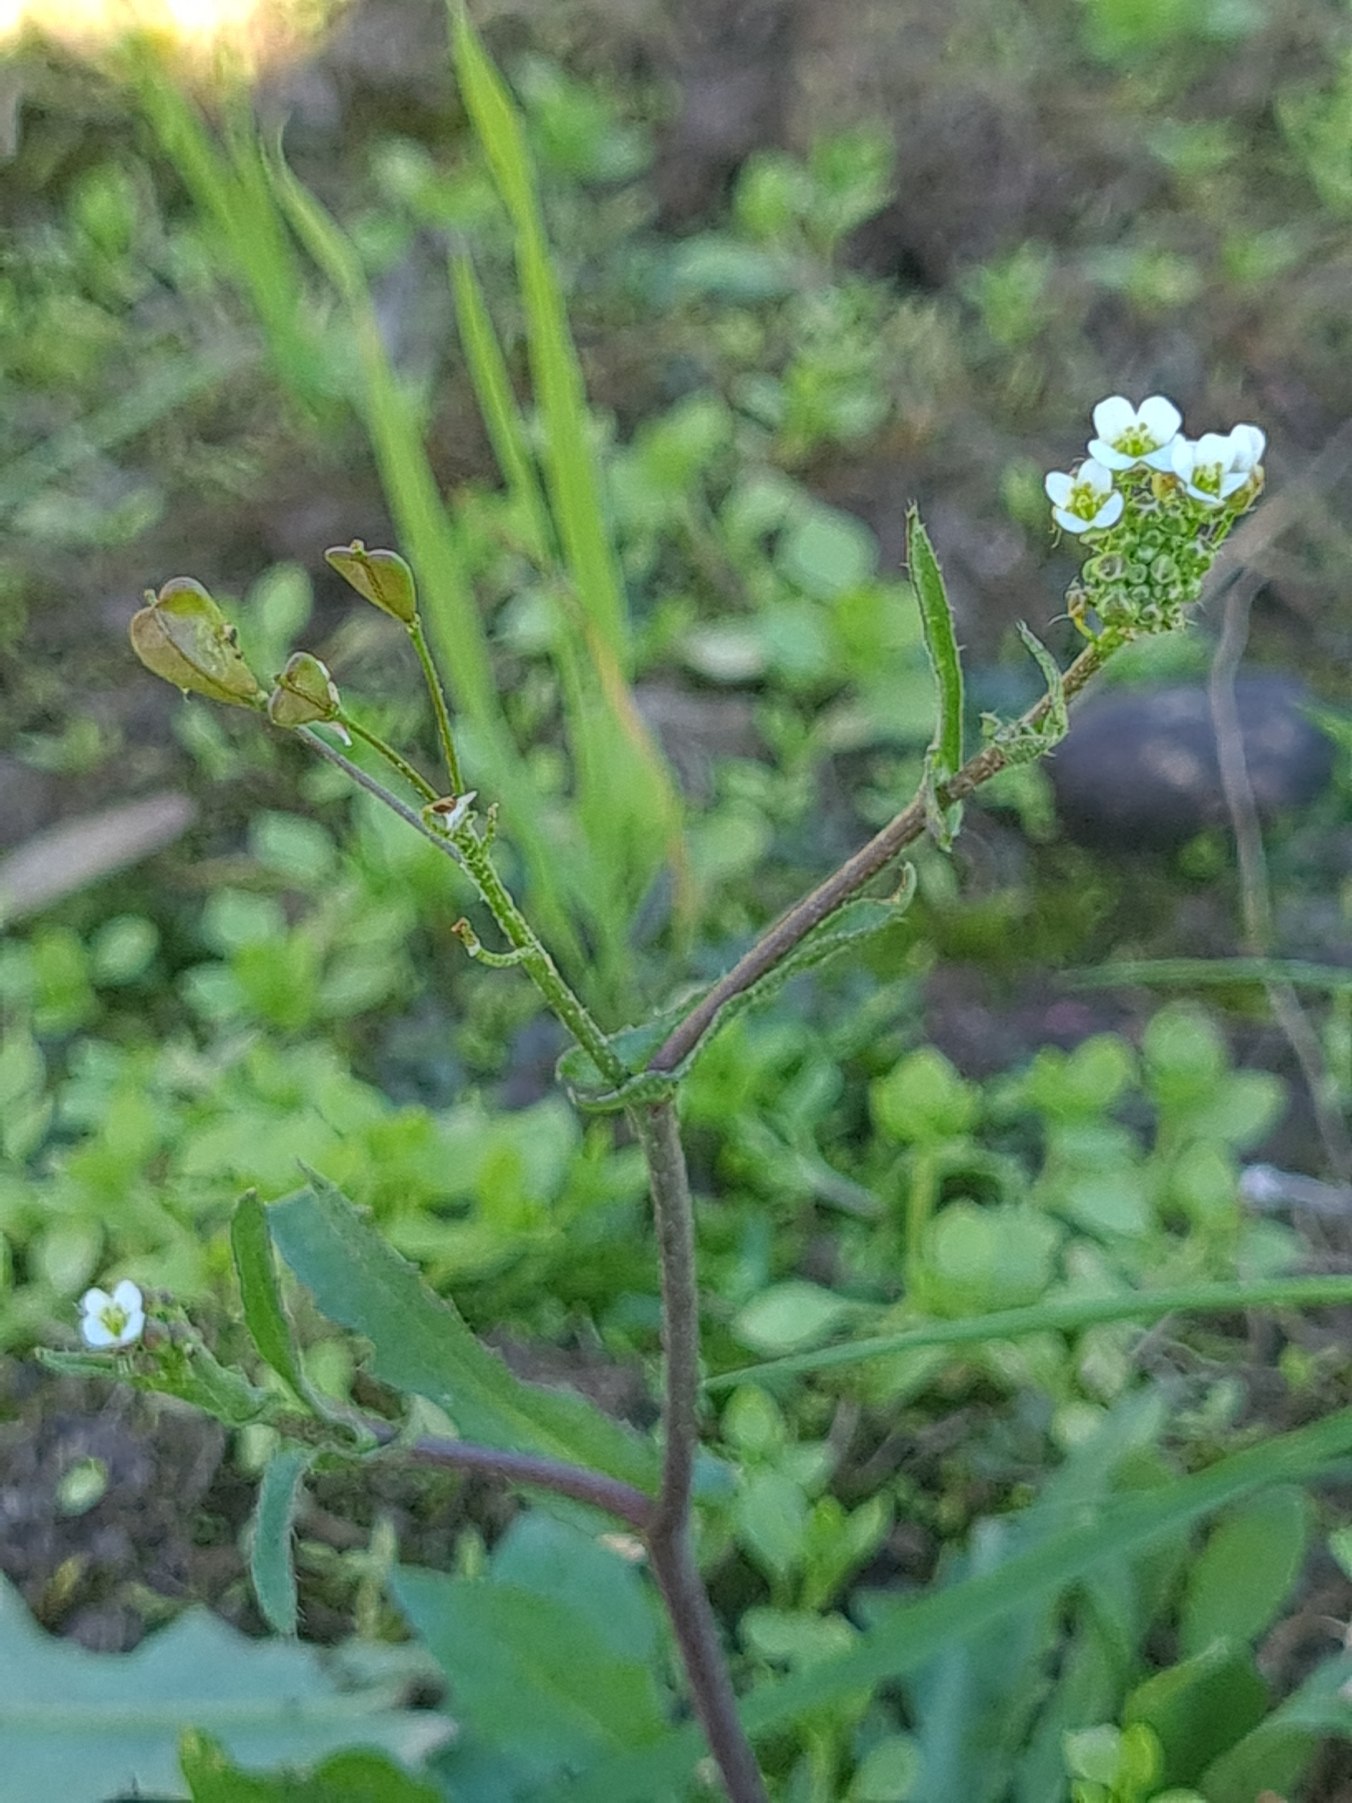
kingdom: Plantae
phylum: Tracheophyta
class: Magnoliopsida
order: Brassicales
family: Brassicaceae
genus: Capsella
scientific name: Capsella bursa-pastoris
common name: Hyrdetaske
